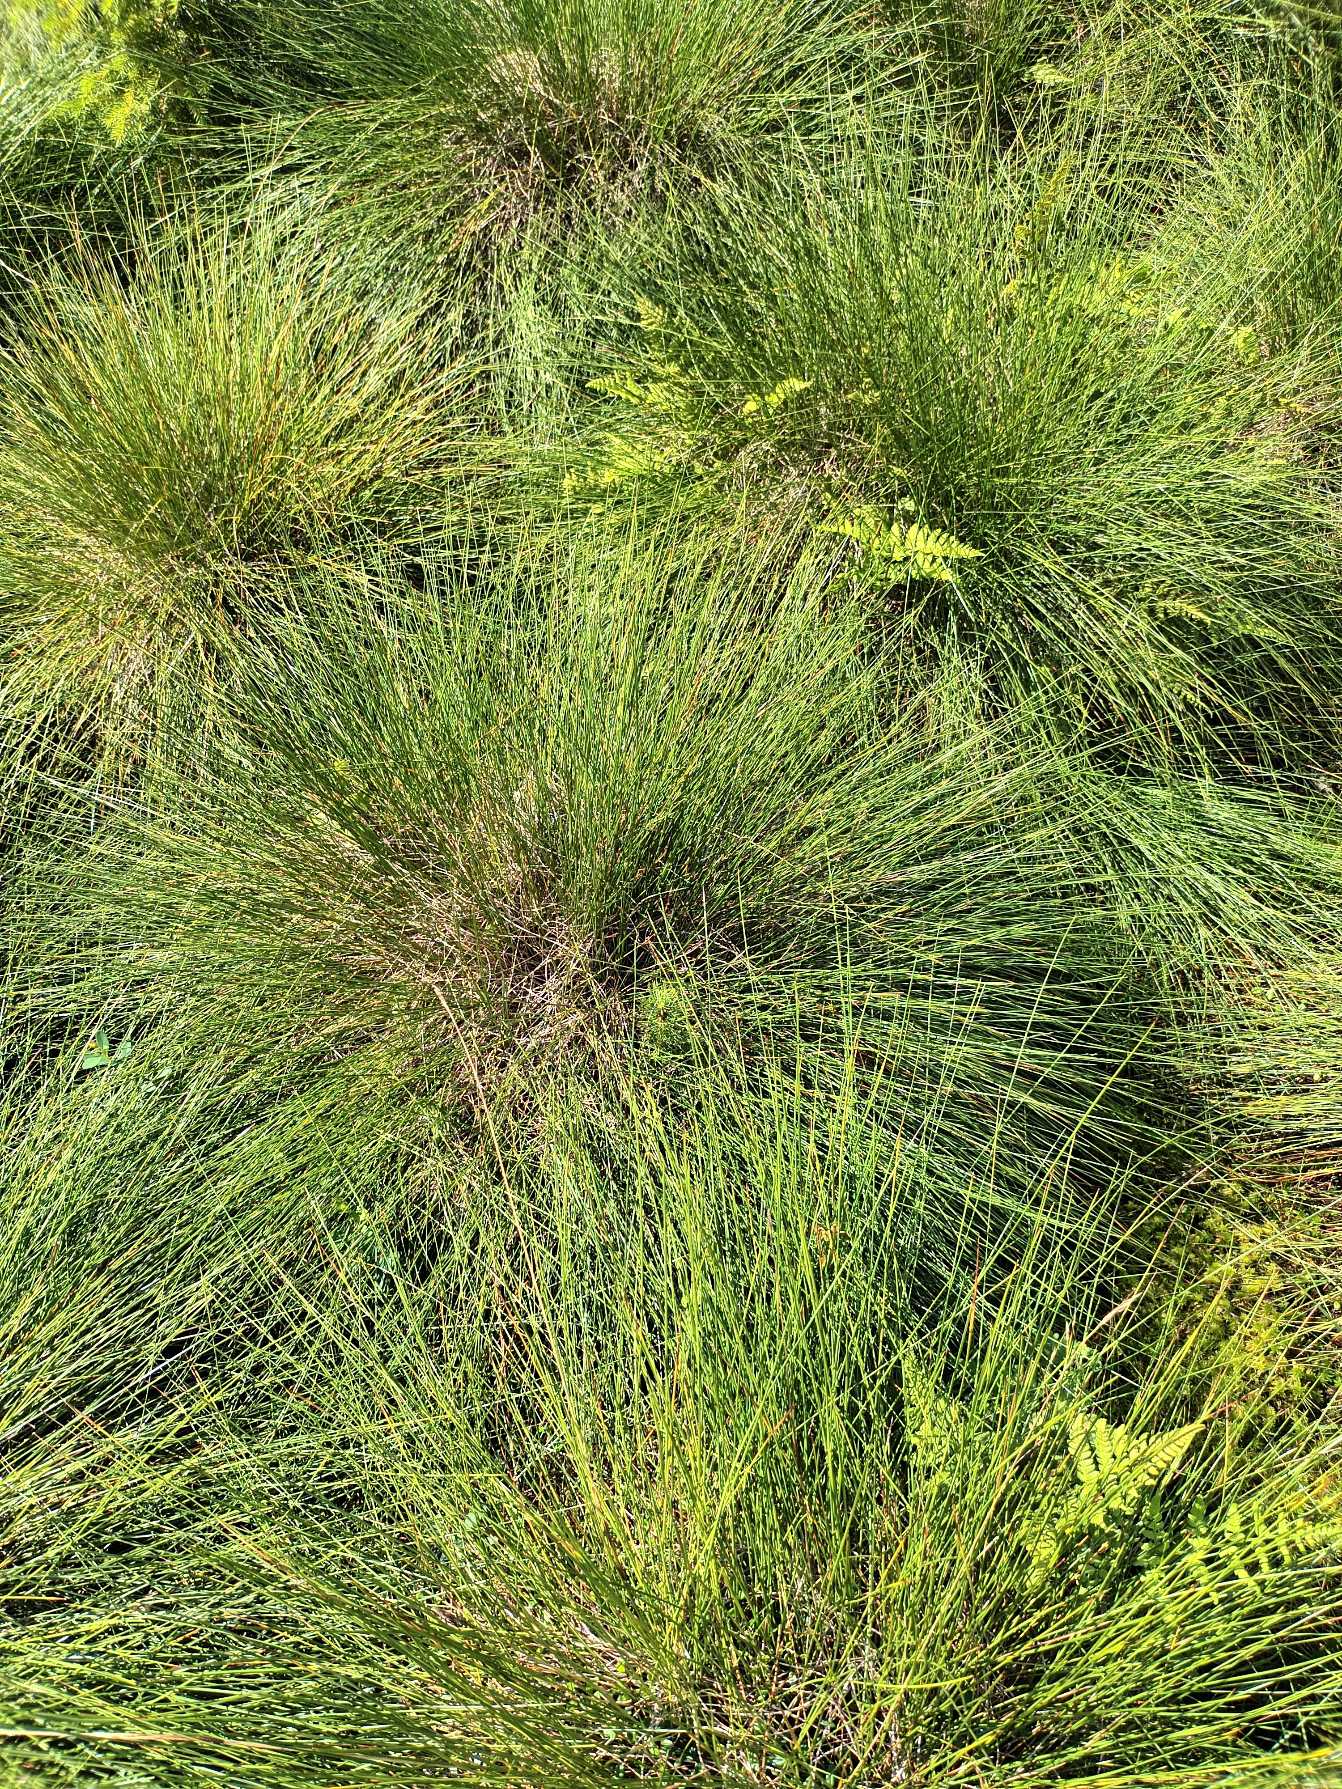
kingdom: Plantae
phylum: Tracheophyta
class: Liliopsida
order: Poales
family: Cyperaceae
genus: Eriophorum
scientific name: Eriophorum vaginatum
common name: Tue-kæruld
